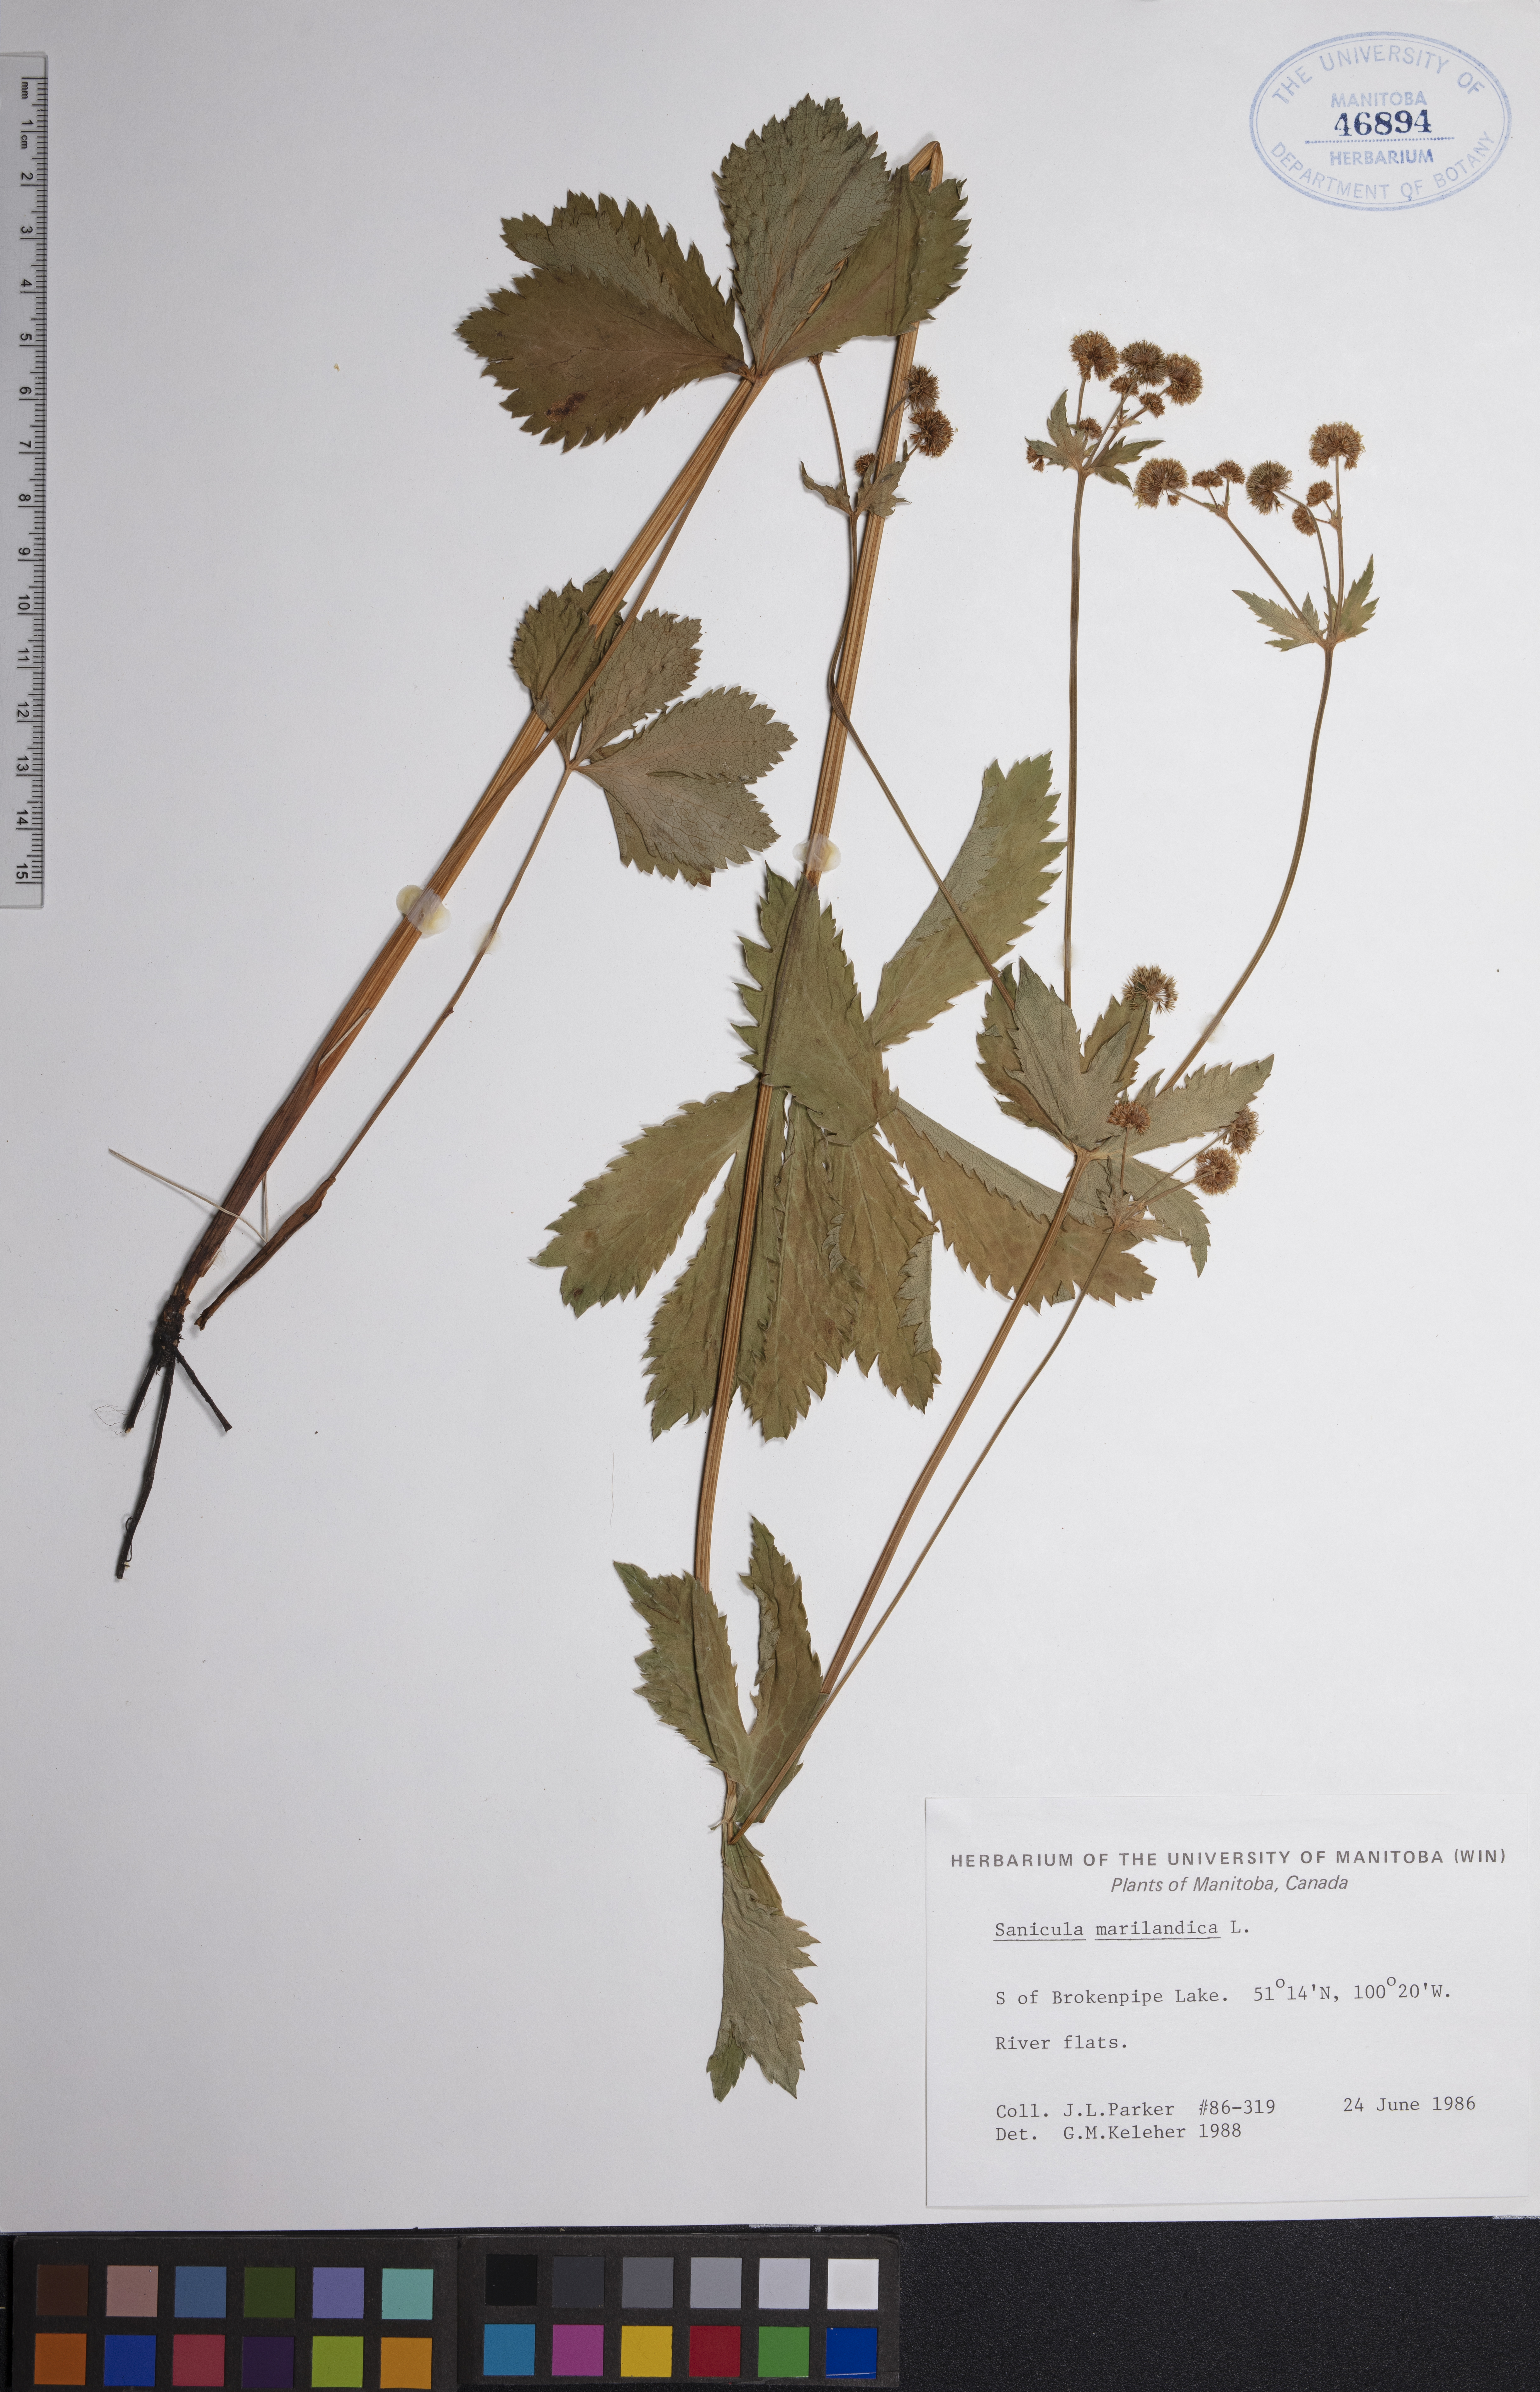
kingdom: Plantae
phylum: Tracheophyta
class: Magnoliopsida
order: Apiales
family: Apiaceae
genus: Sanicula
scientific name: Sanicula marilandica
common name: Black snakeroot
